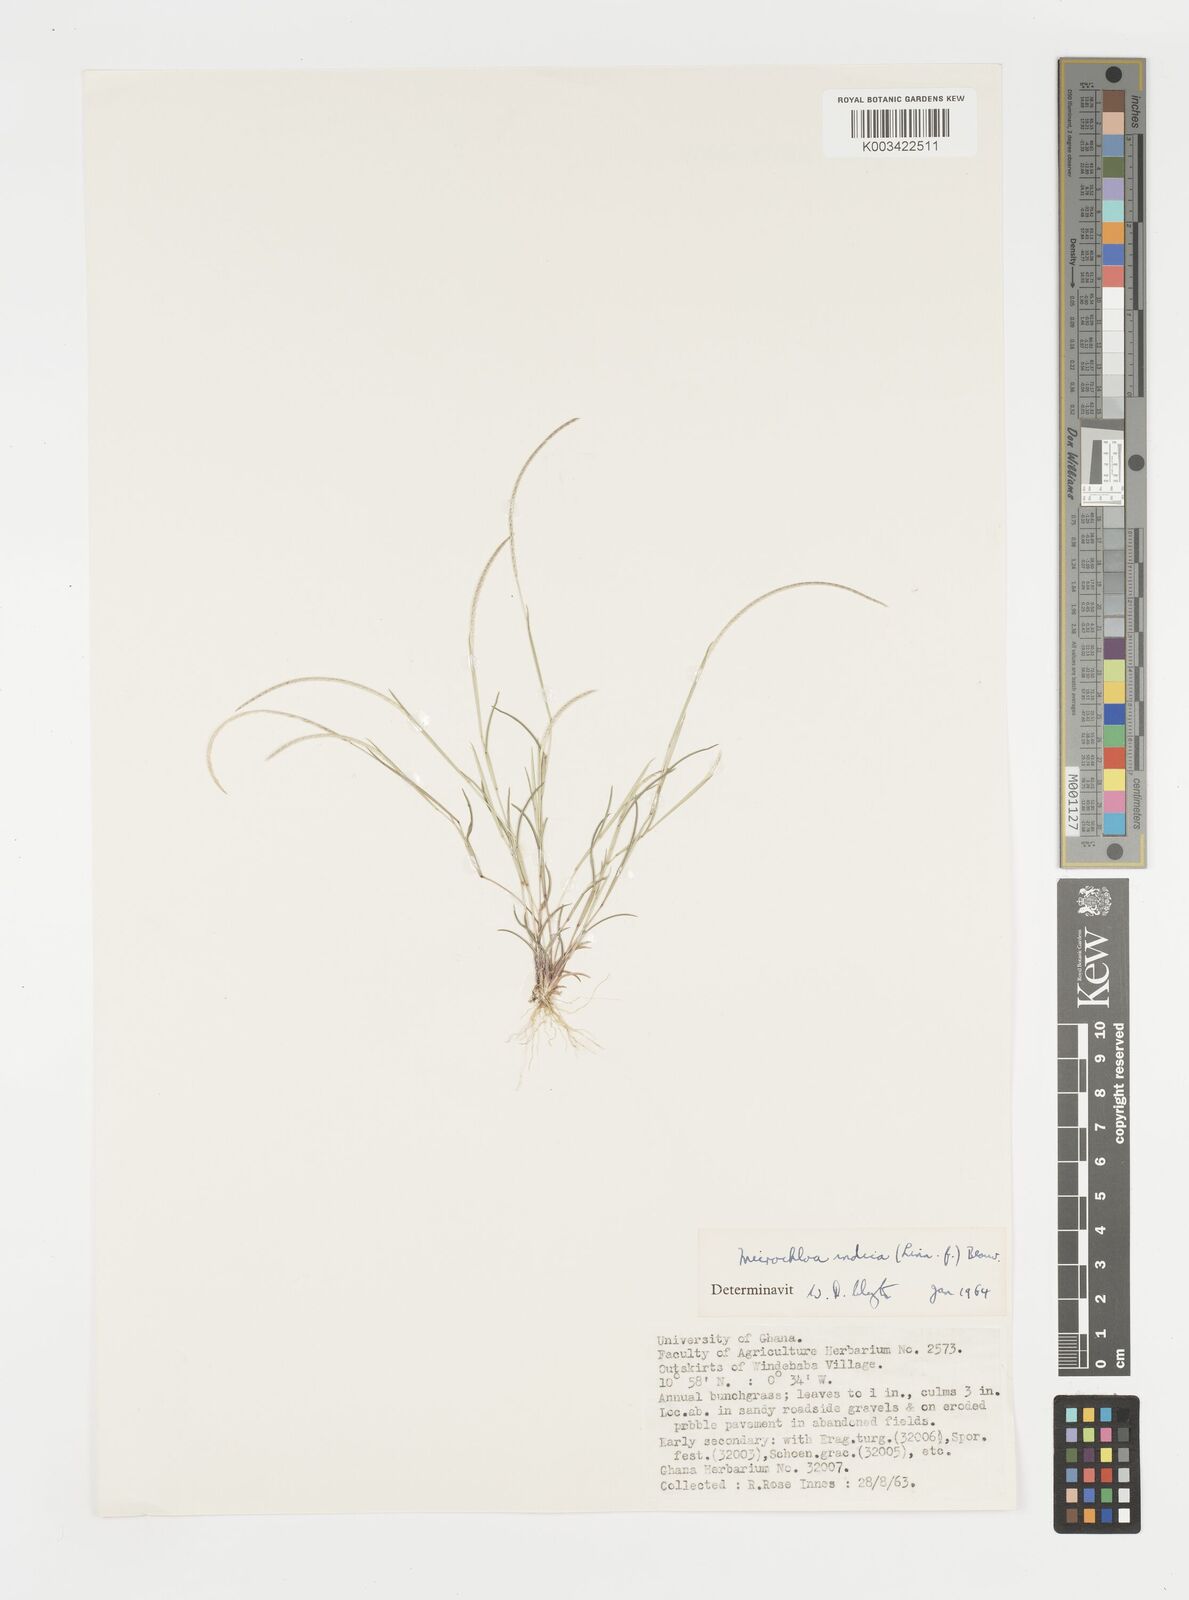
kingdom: Plantae
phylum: Tracheophyta
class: Liliopsida
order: Poales
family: Poaceae
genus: Microchloa
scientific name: Microchloa indica
